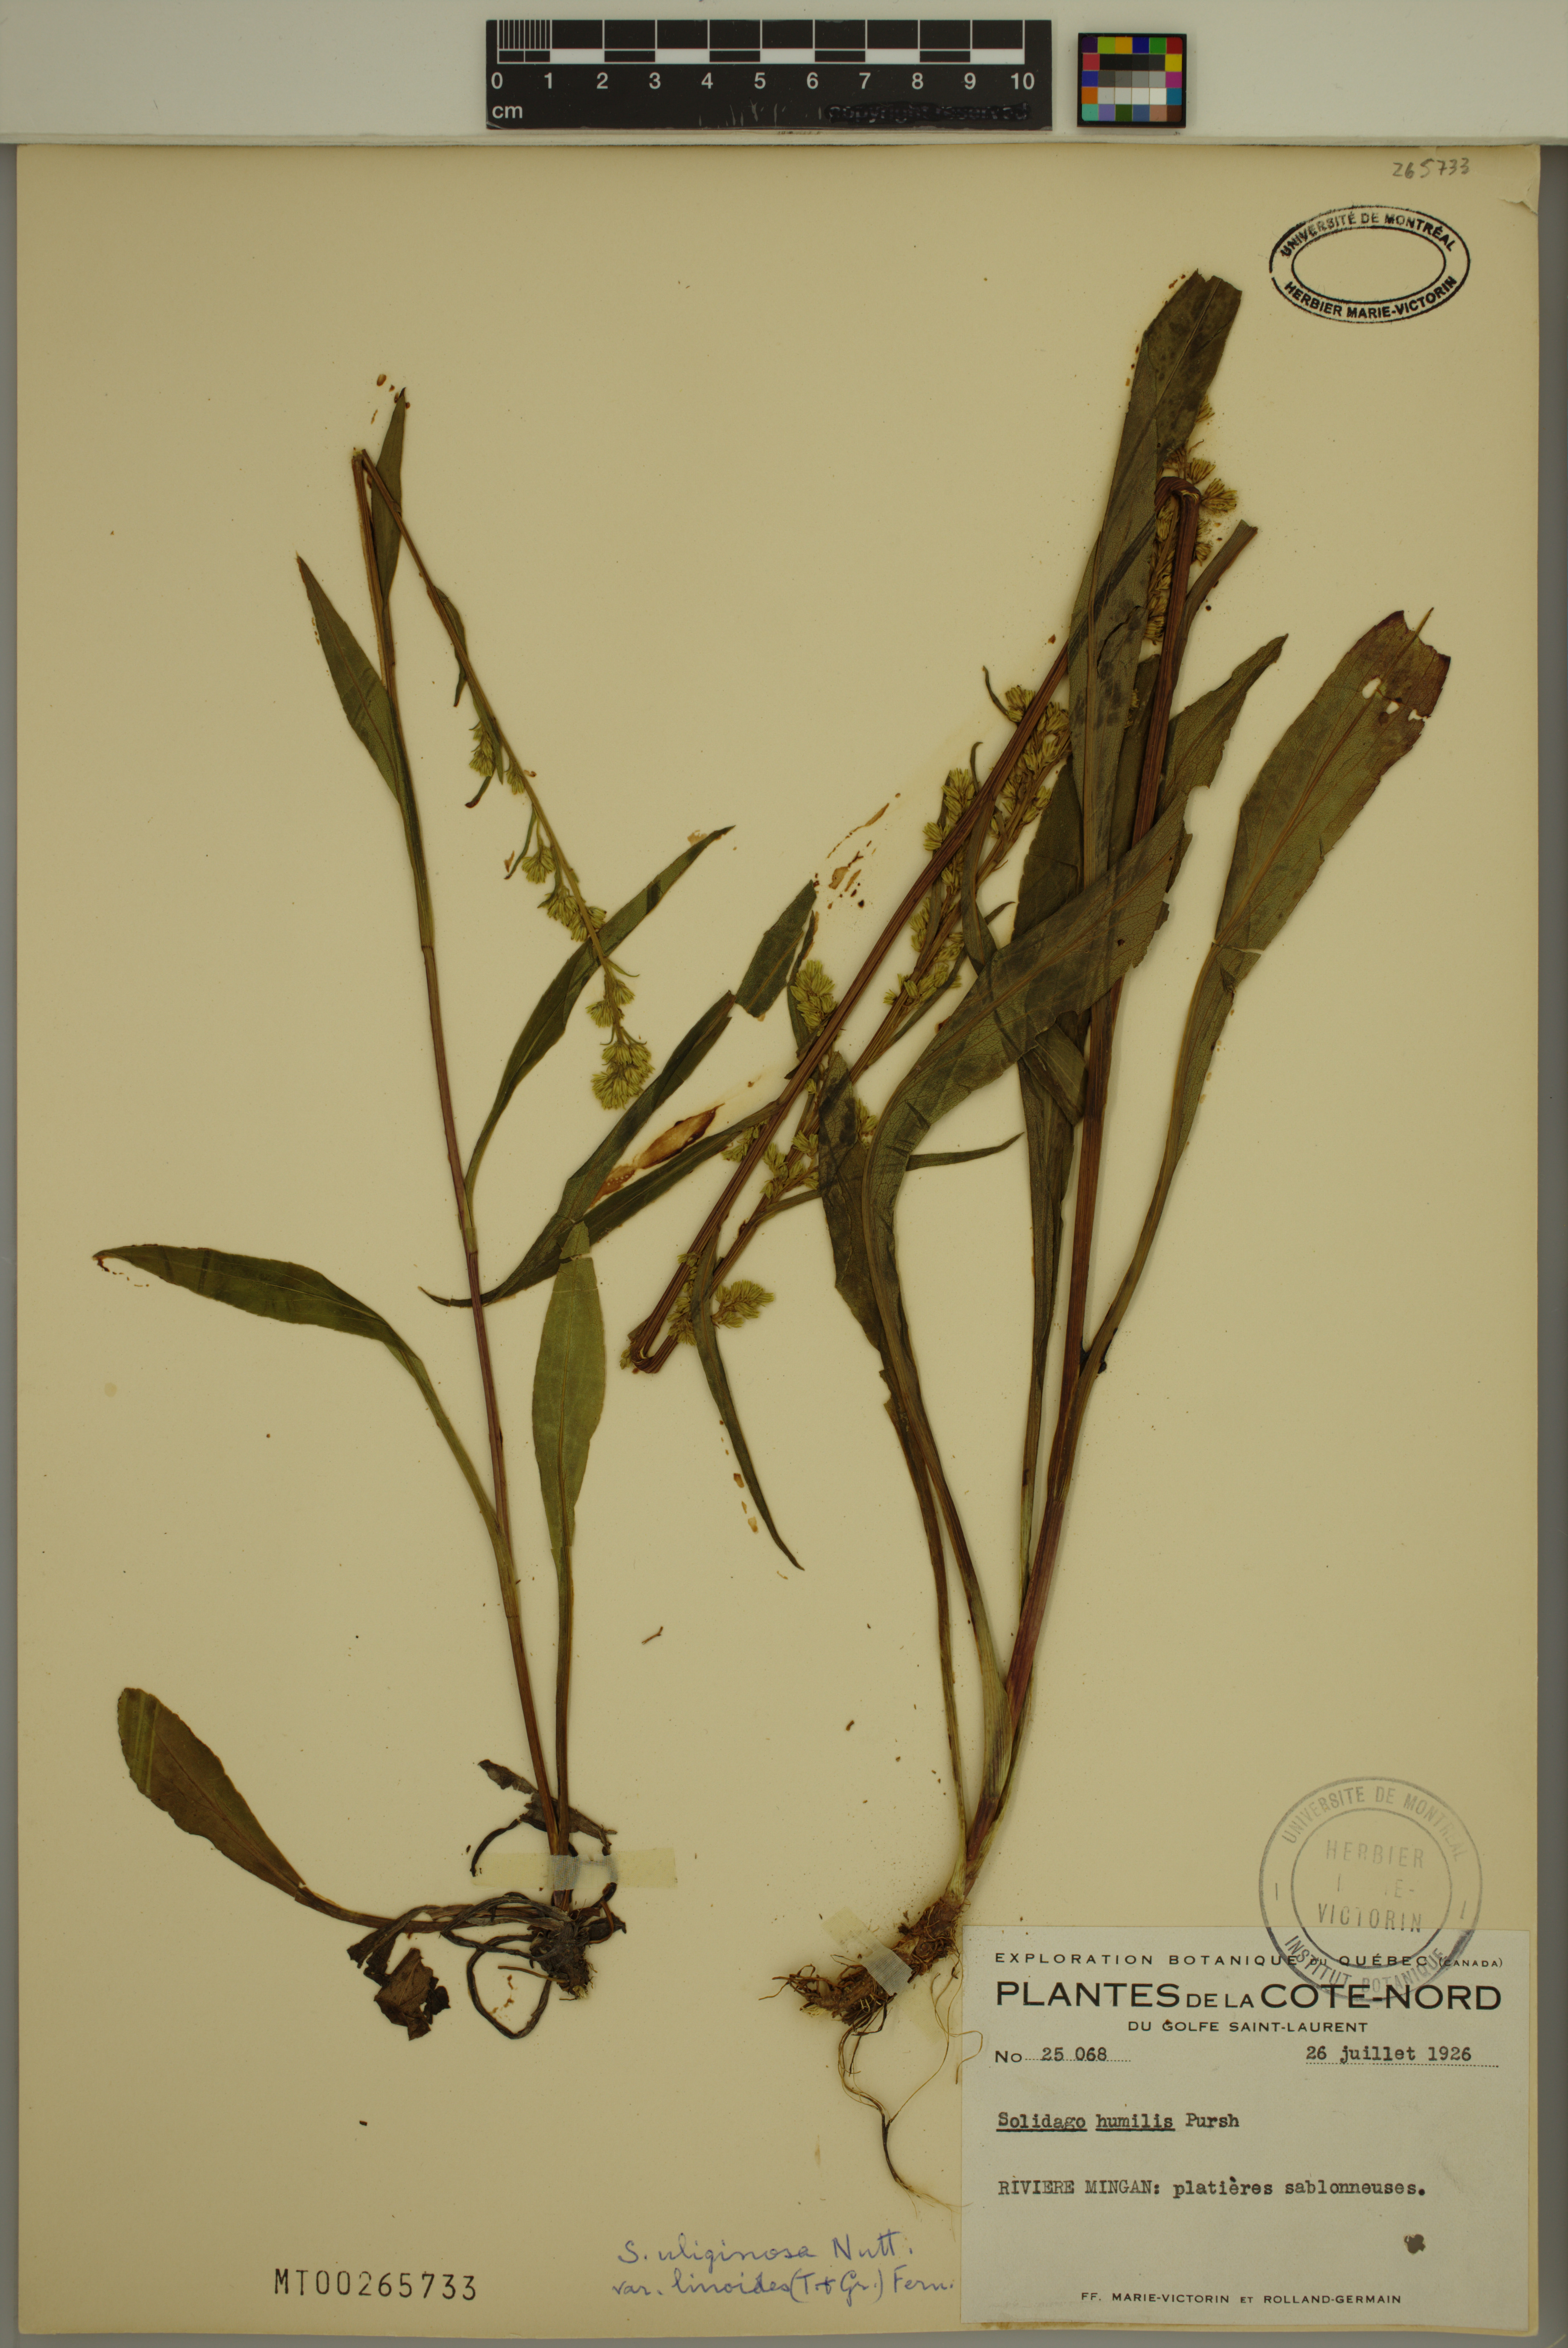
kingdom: Plantae
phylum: Tracheophyta
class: Magnoliopsida
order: Asterales
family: Asteraceae
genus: Solidago
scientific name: Solidago uliginosa
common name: Bog goldenrod
